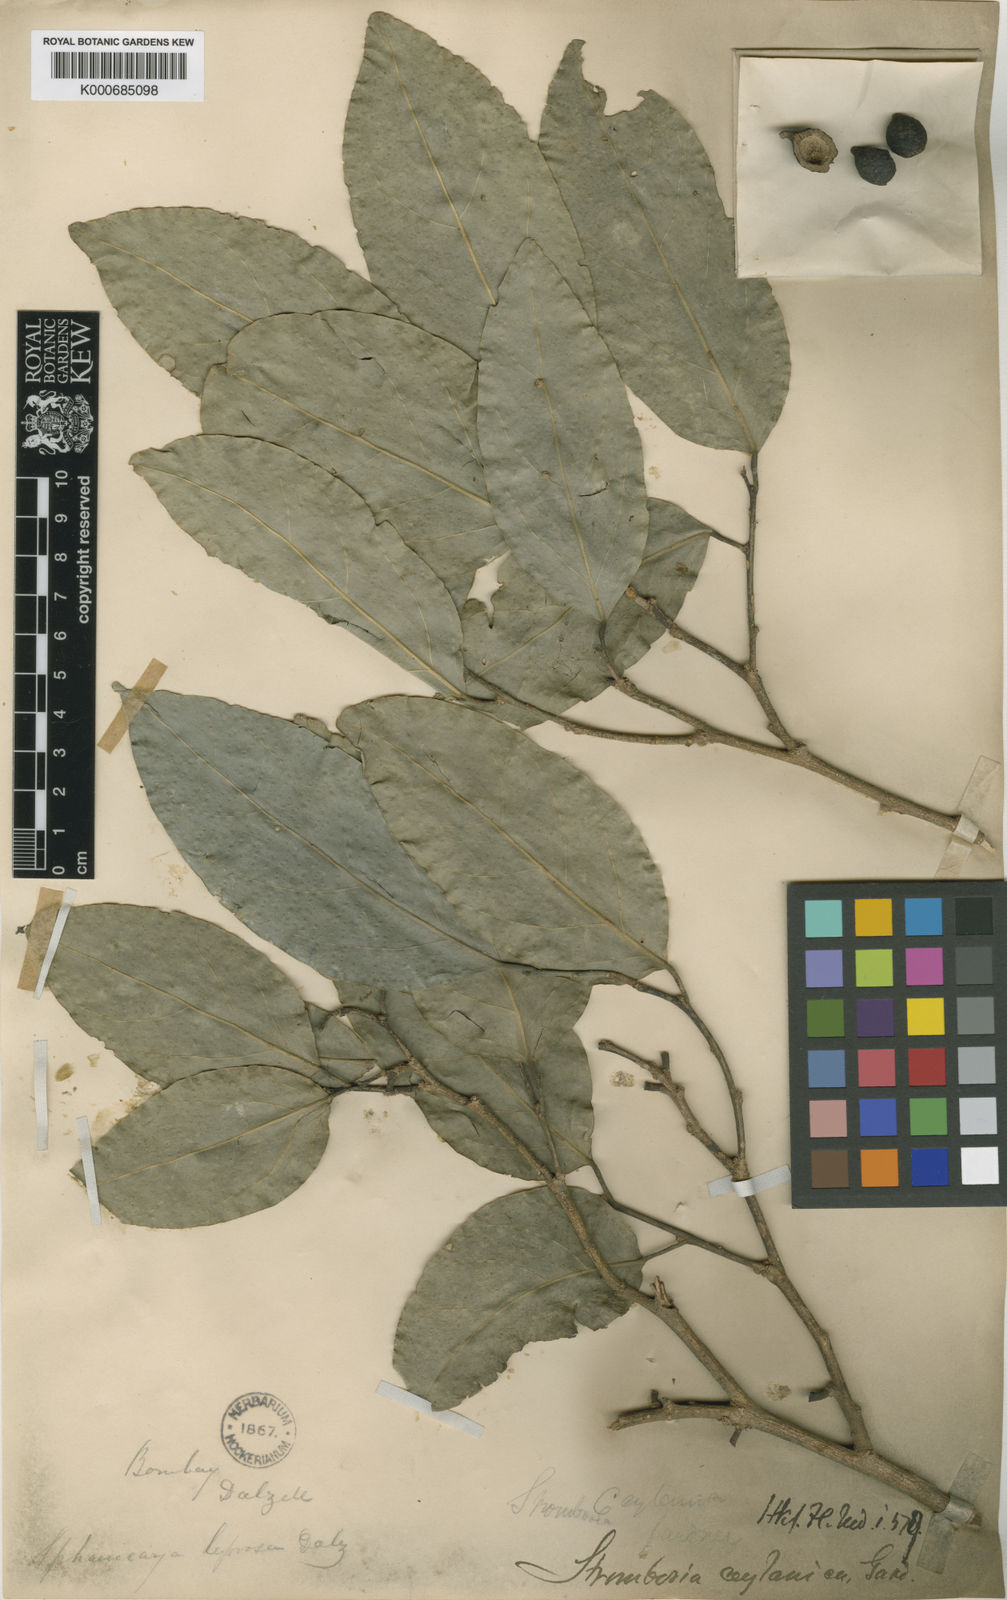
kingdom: Plantae
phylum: Tracheophyta
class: Magnoliopsida
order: Santalales
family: Strombosiaceae
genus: Strombosia
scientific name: Strombosia ceylanica
